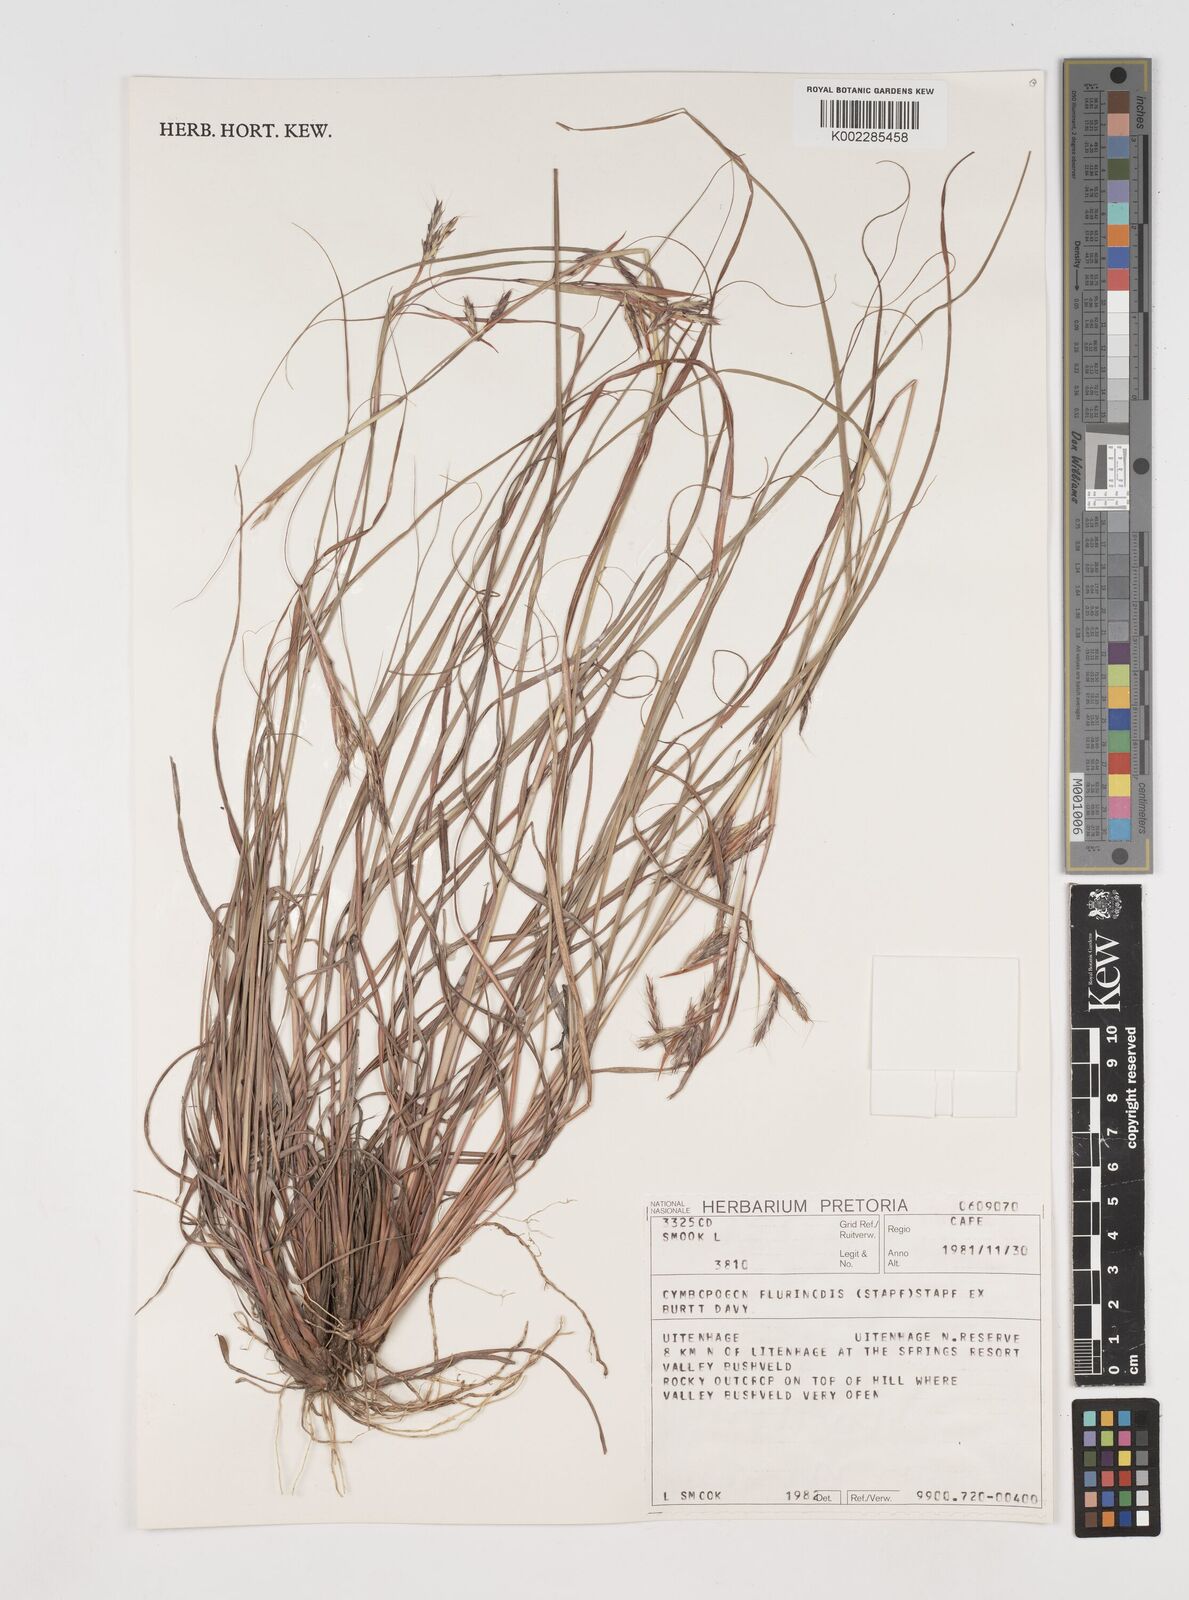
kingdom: Plantae
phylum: Tracheophyta
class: Liliopsida
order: Poales
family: Poaceae
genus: Cymbopogon
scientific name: Cymbopogon pospischilii
